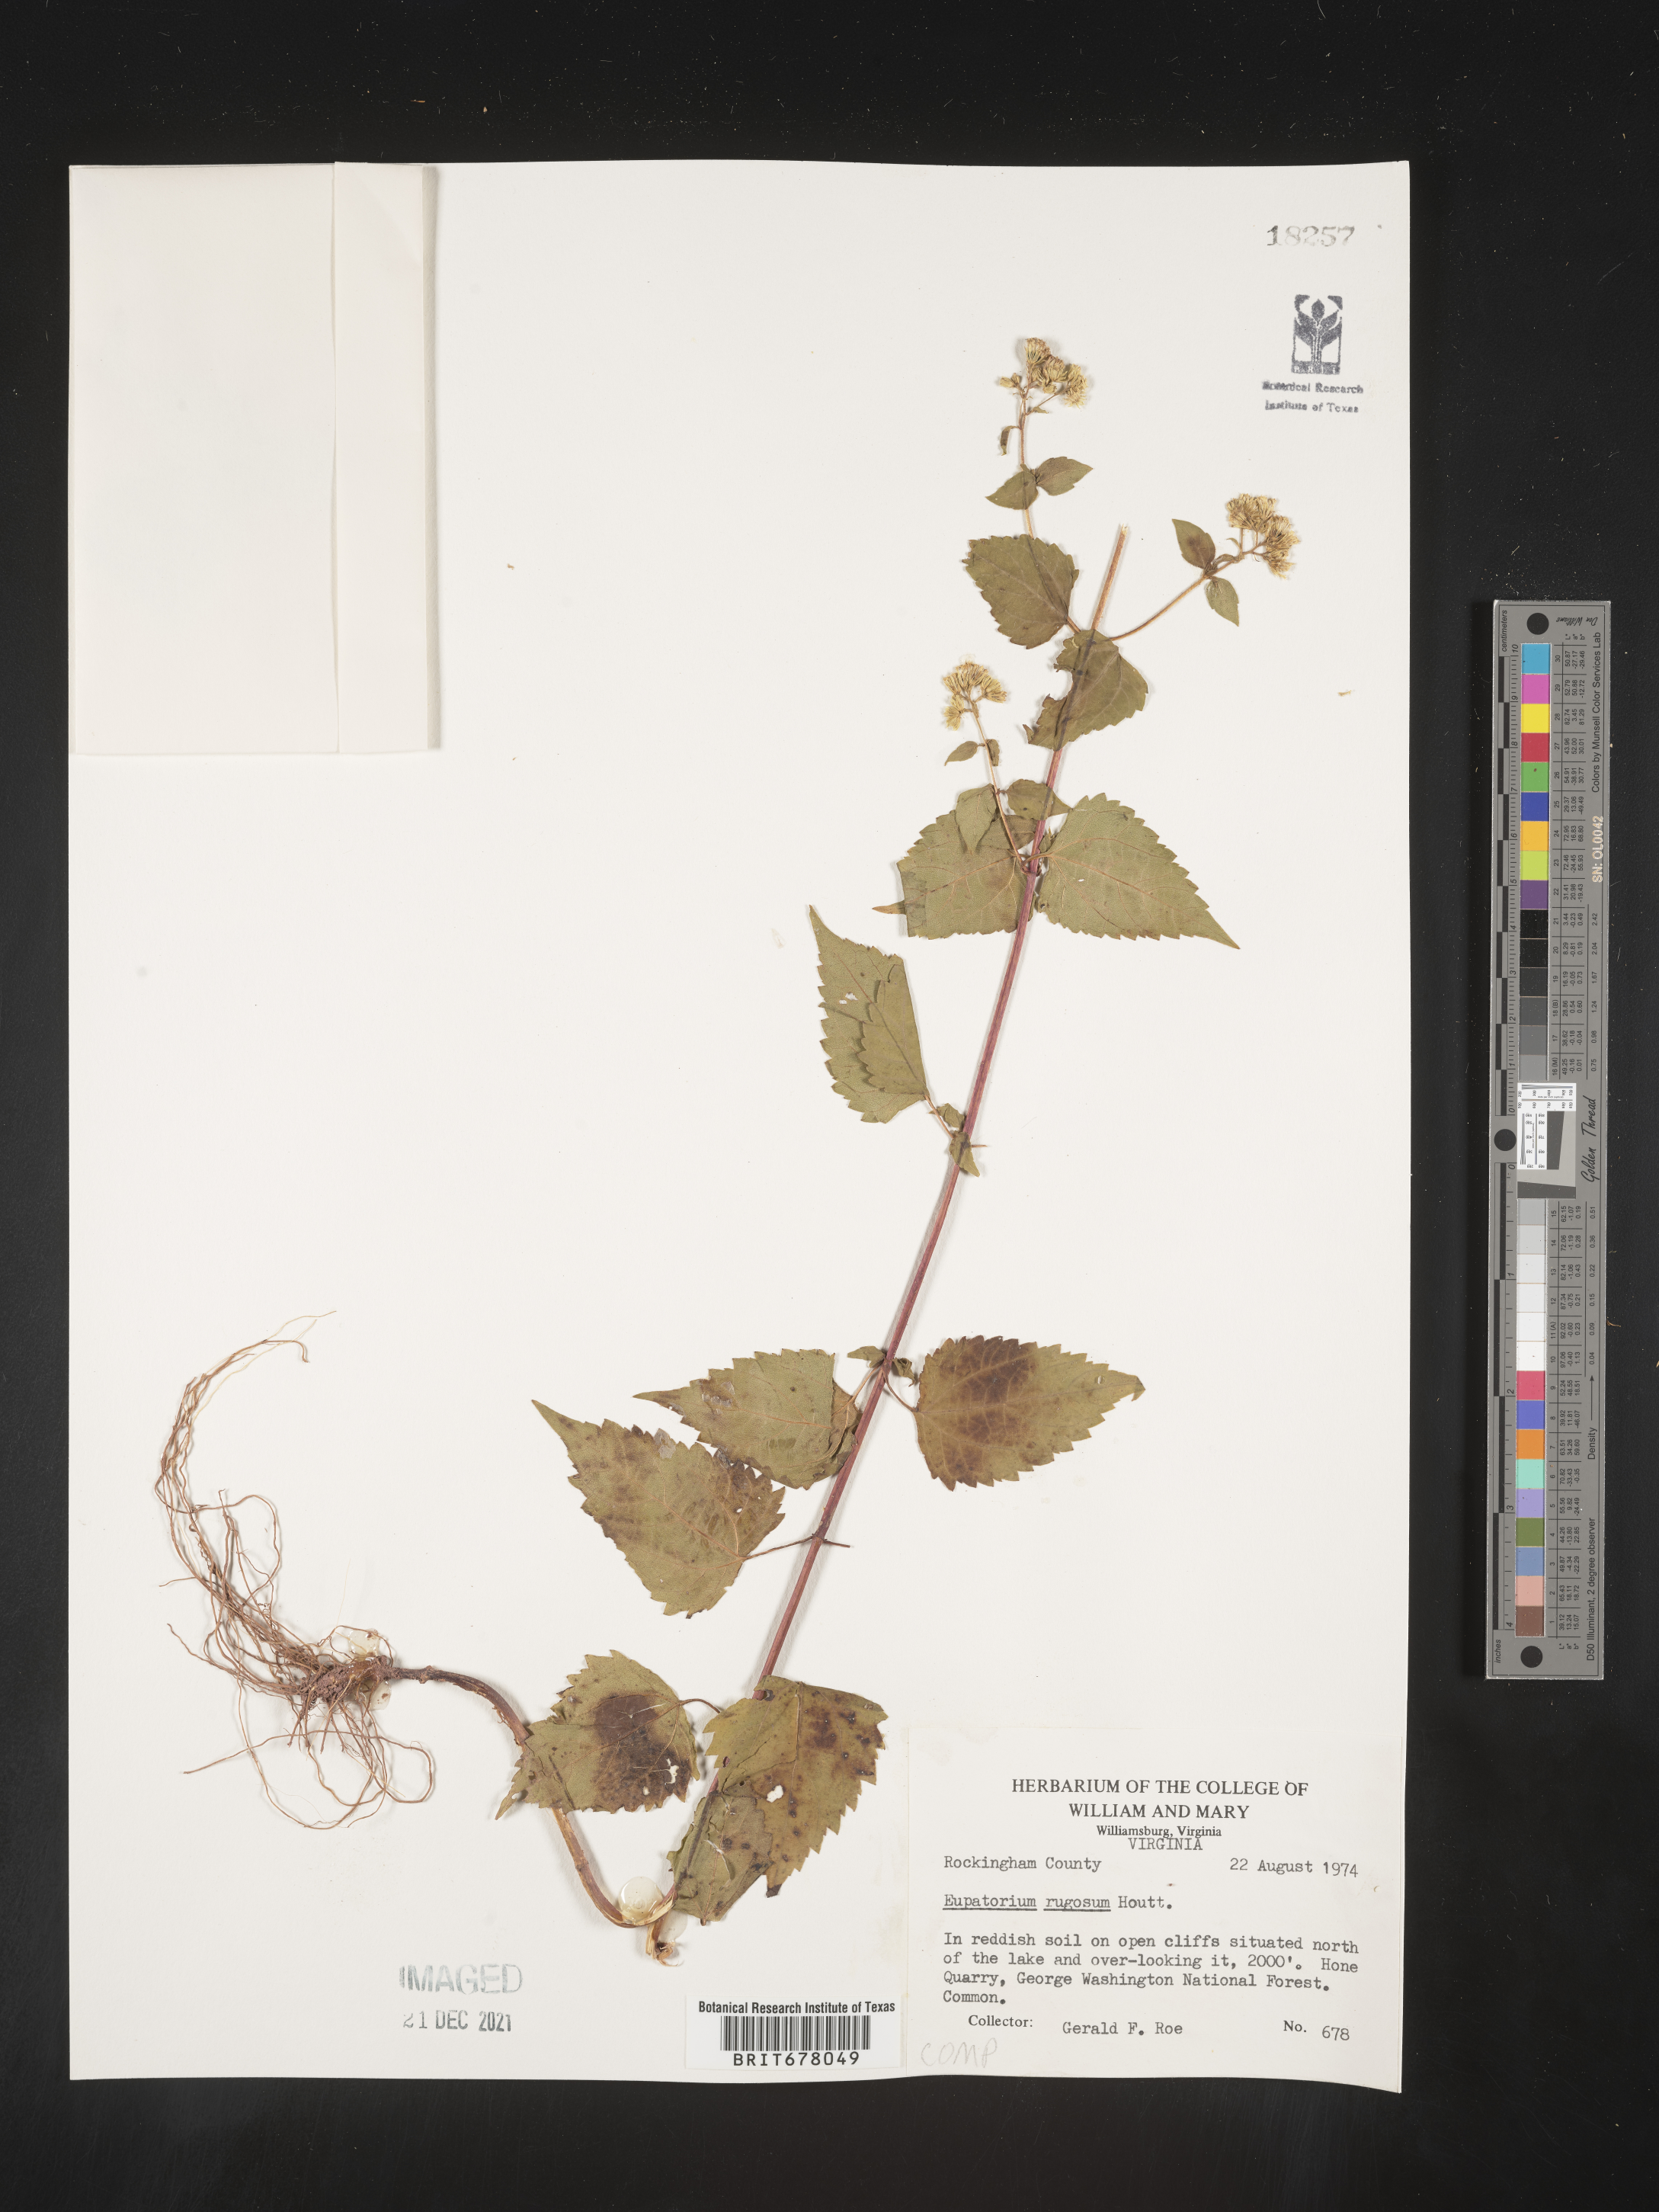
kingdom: Plantae
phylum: Tracheophyta
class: Magnoliopsida
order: Asterales
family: Asteraceae
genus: Eupatorium
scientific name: Eupatorium
